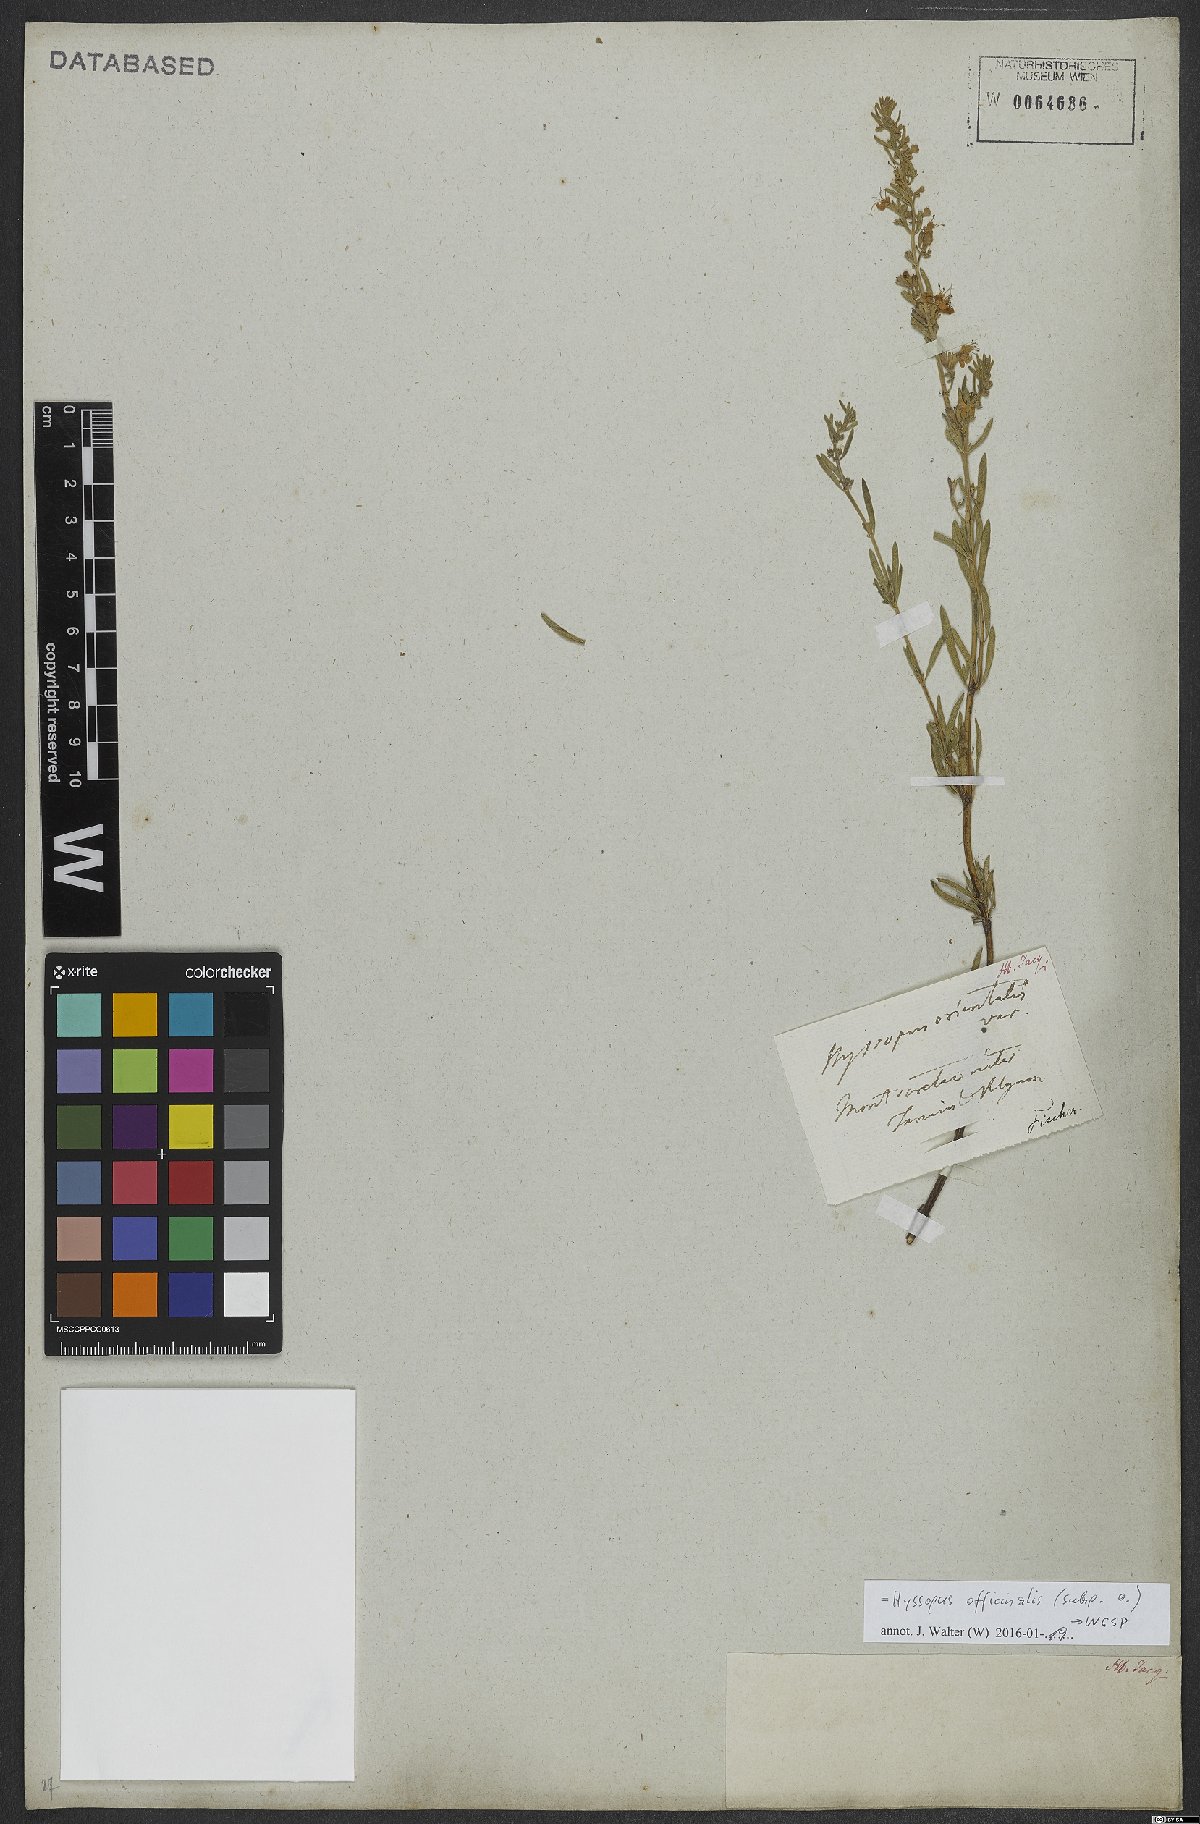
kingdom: Plantae
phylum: Tracheophyta
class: Magnoliopsida
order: Lamiales
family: Lamiaceae
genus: Hyssopus
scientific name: Hyssopus officinalis
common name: Hyssop
